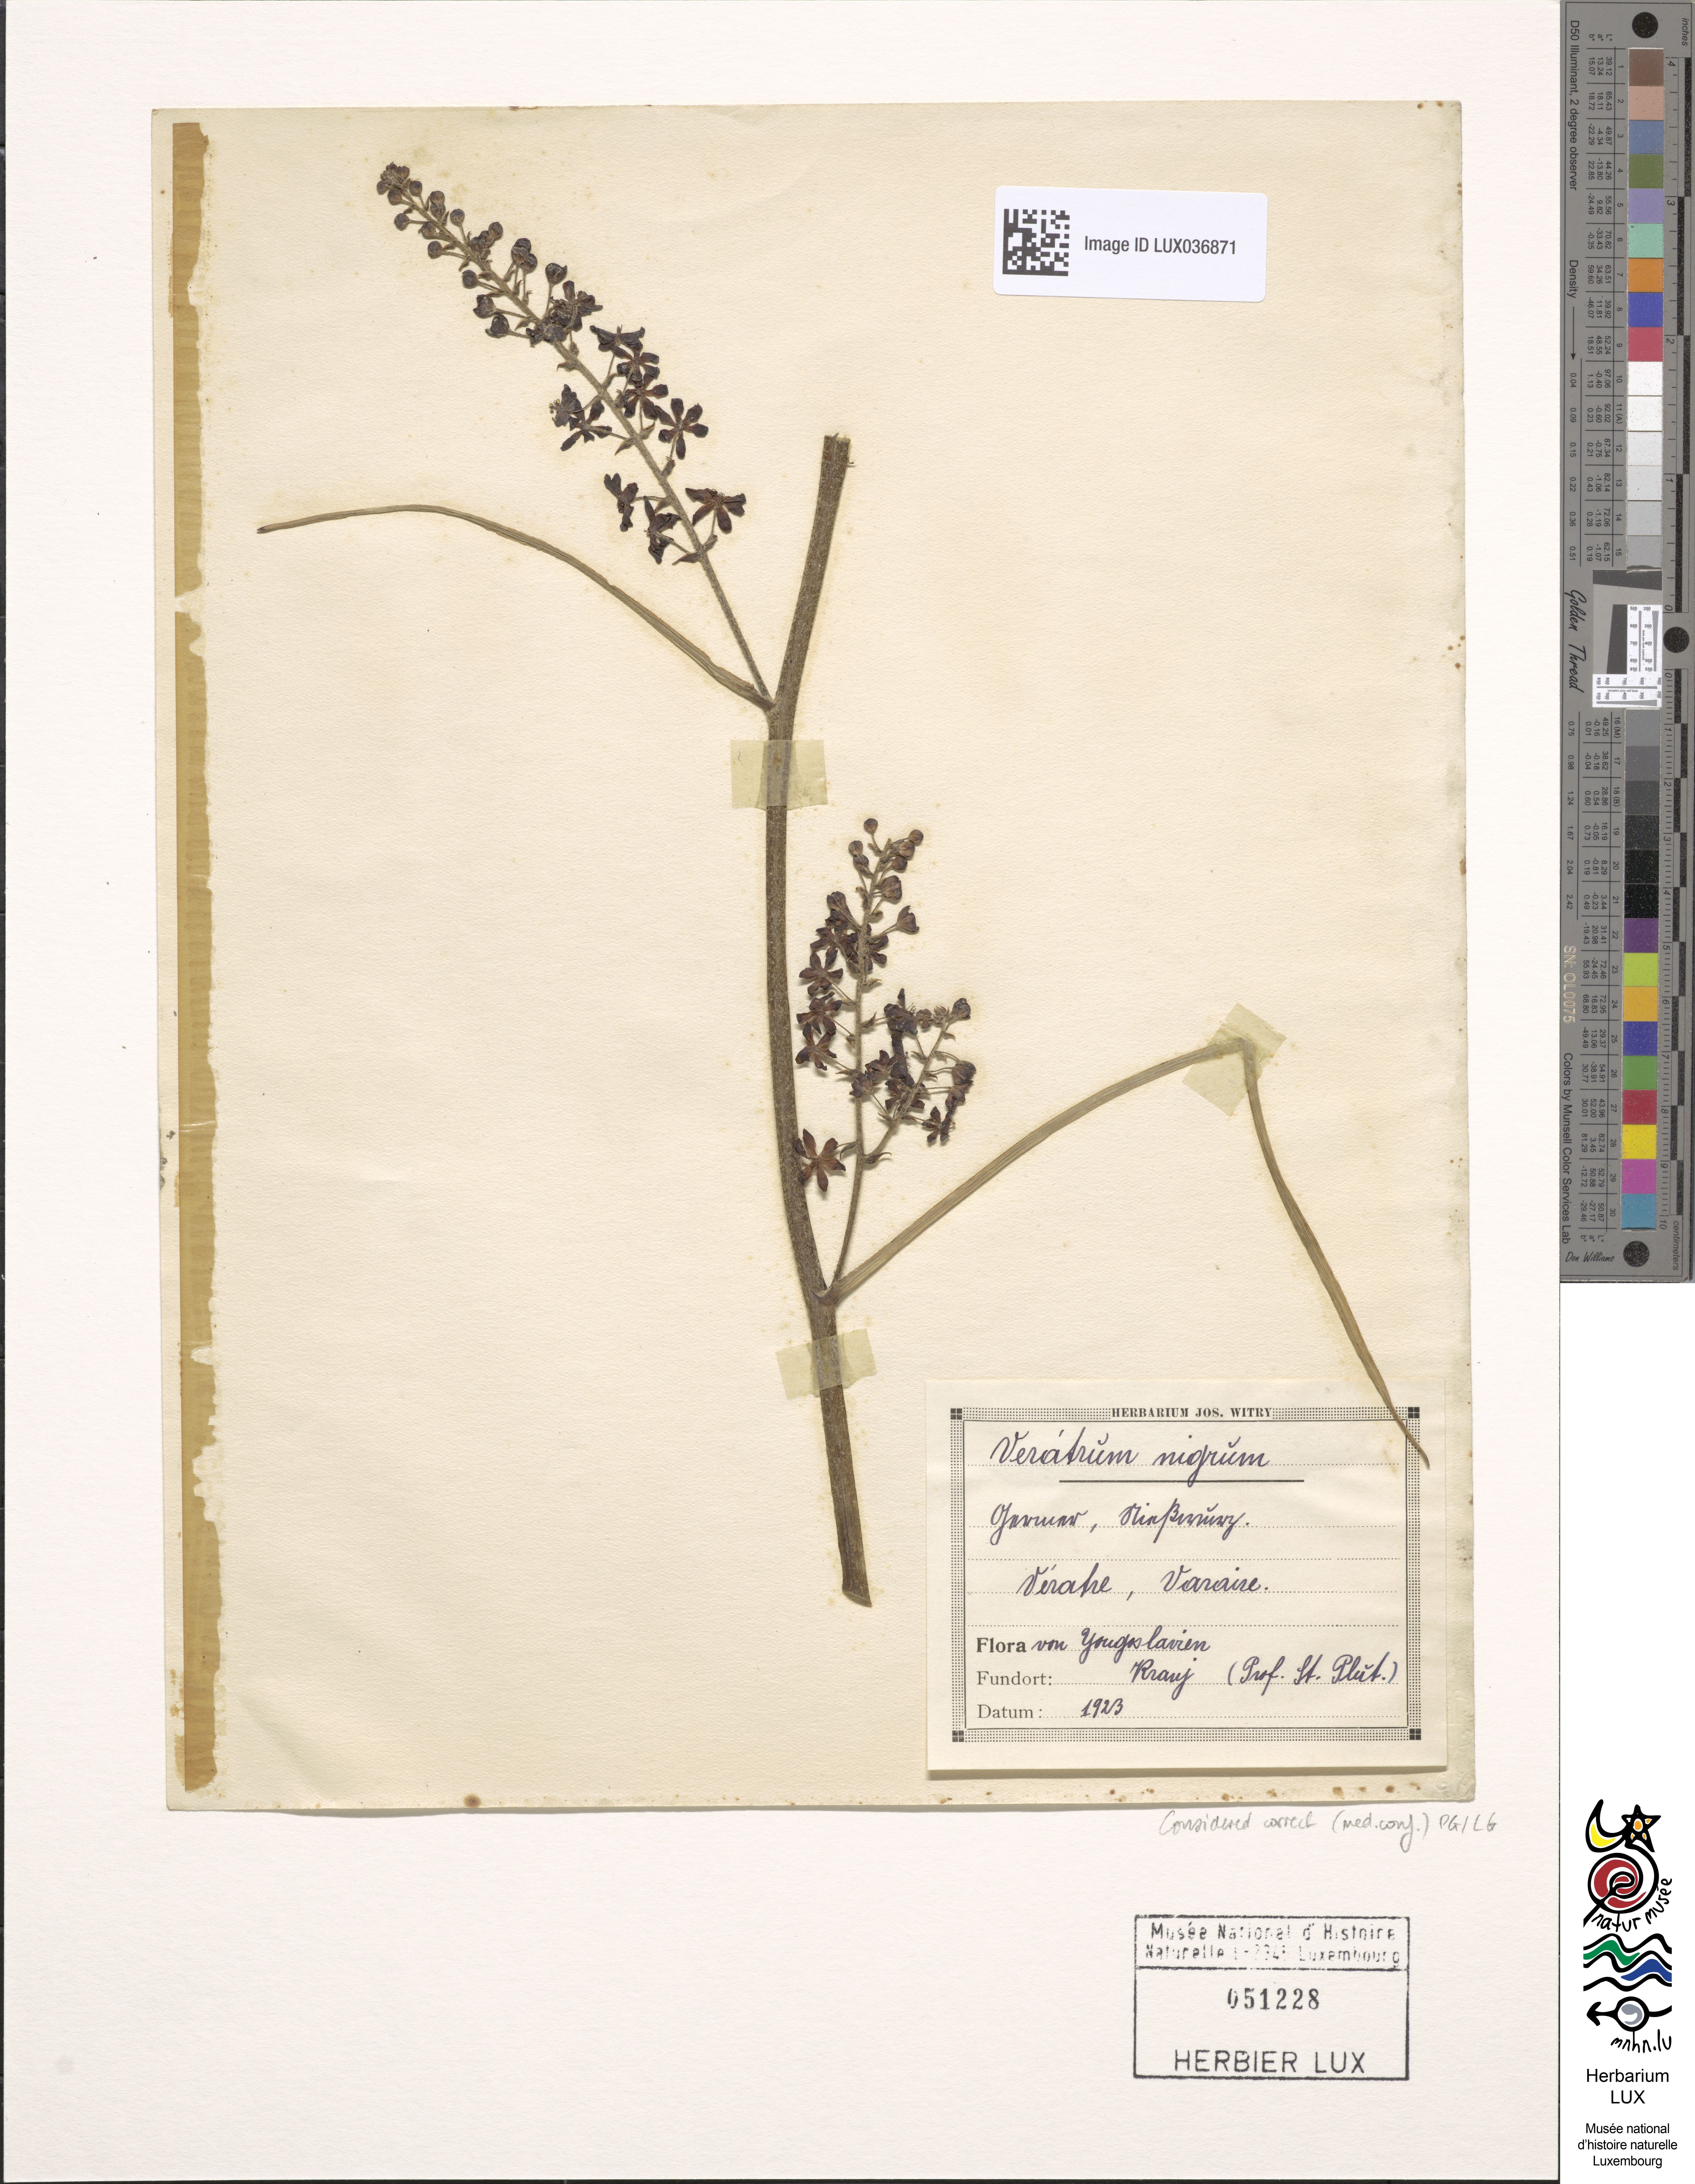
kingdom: Plantae
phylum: Tracheophyta
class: Liliopsida
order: Liliales
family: Melanthiaceae
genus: Veratrum
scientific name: Veratrum nigrum
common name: Black veratrum
